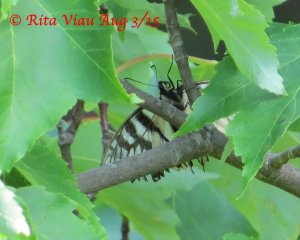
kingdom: Animalia
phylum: Arthropoda
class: Insecta
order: Lepidoptera
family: Papilionidae
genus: Pterourus
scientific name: Pterourus canadensis
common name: Canadian Tiger Swallowtail
